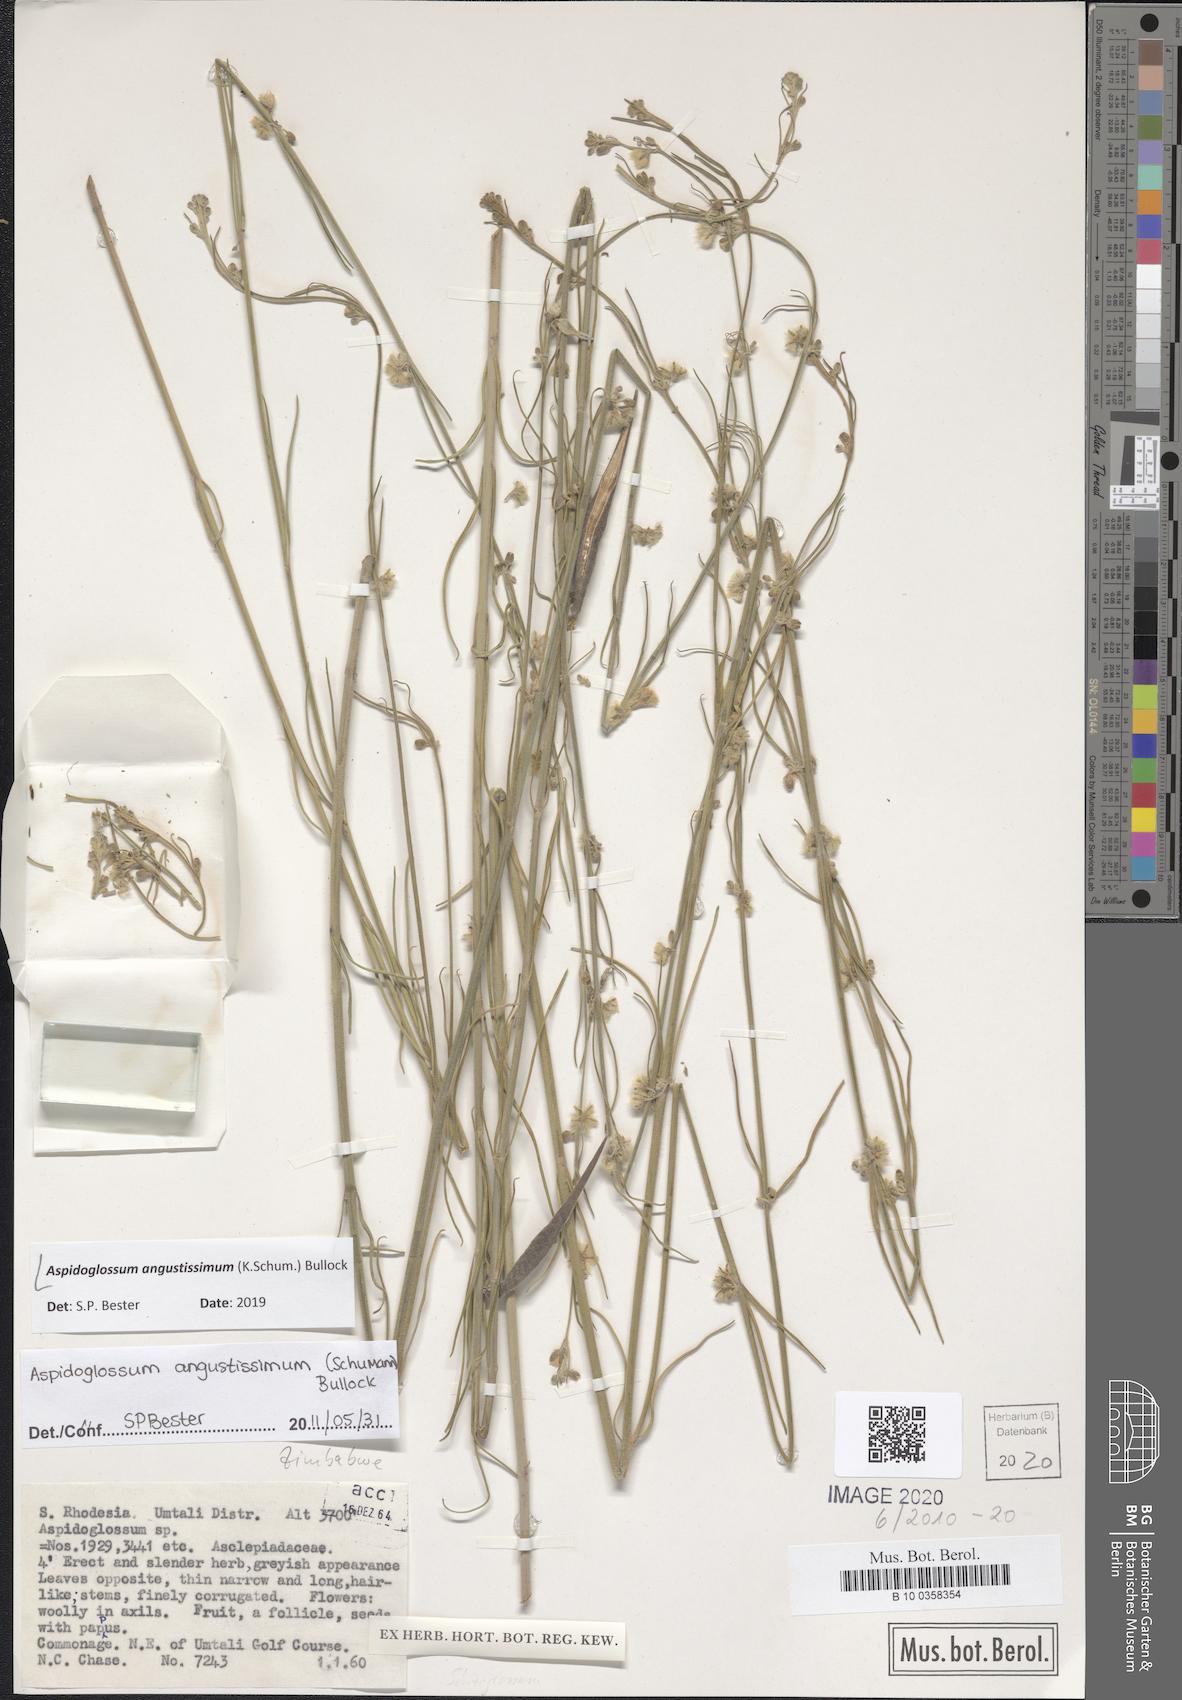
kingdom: Plantae
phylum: Tracheophyta
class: Magnoliopsida
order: Gentianales
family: Apocynaceae
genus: Aspidoglossum
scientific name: Aspidoglossum angustissimum
